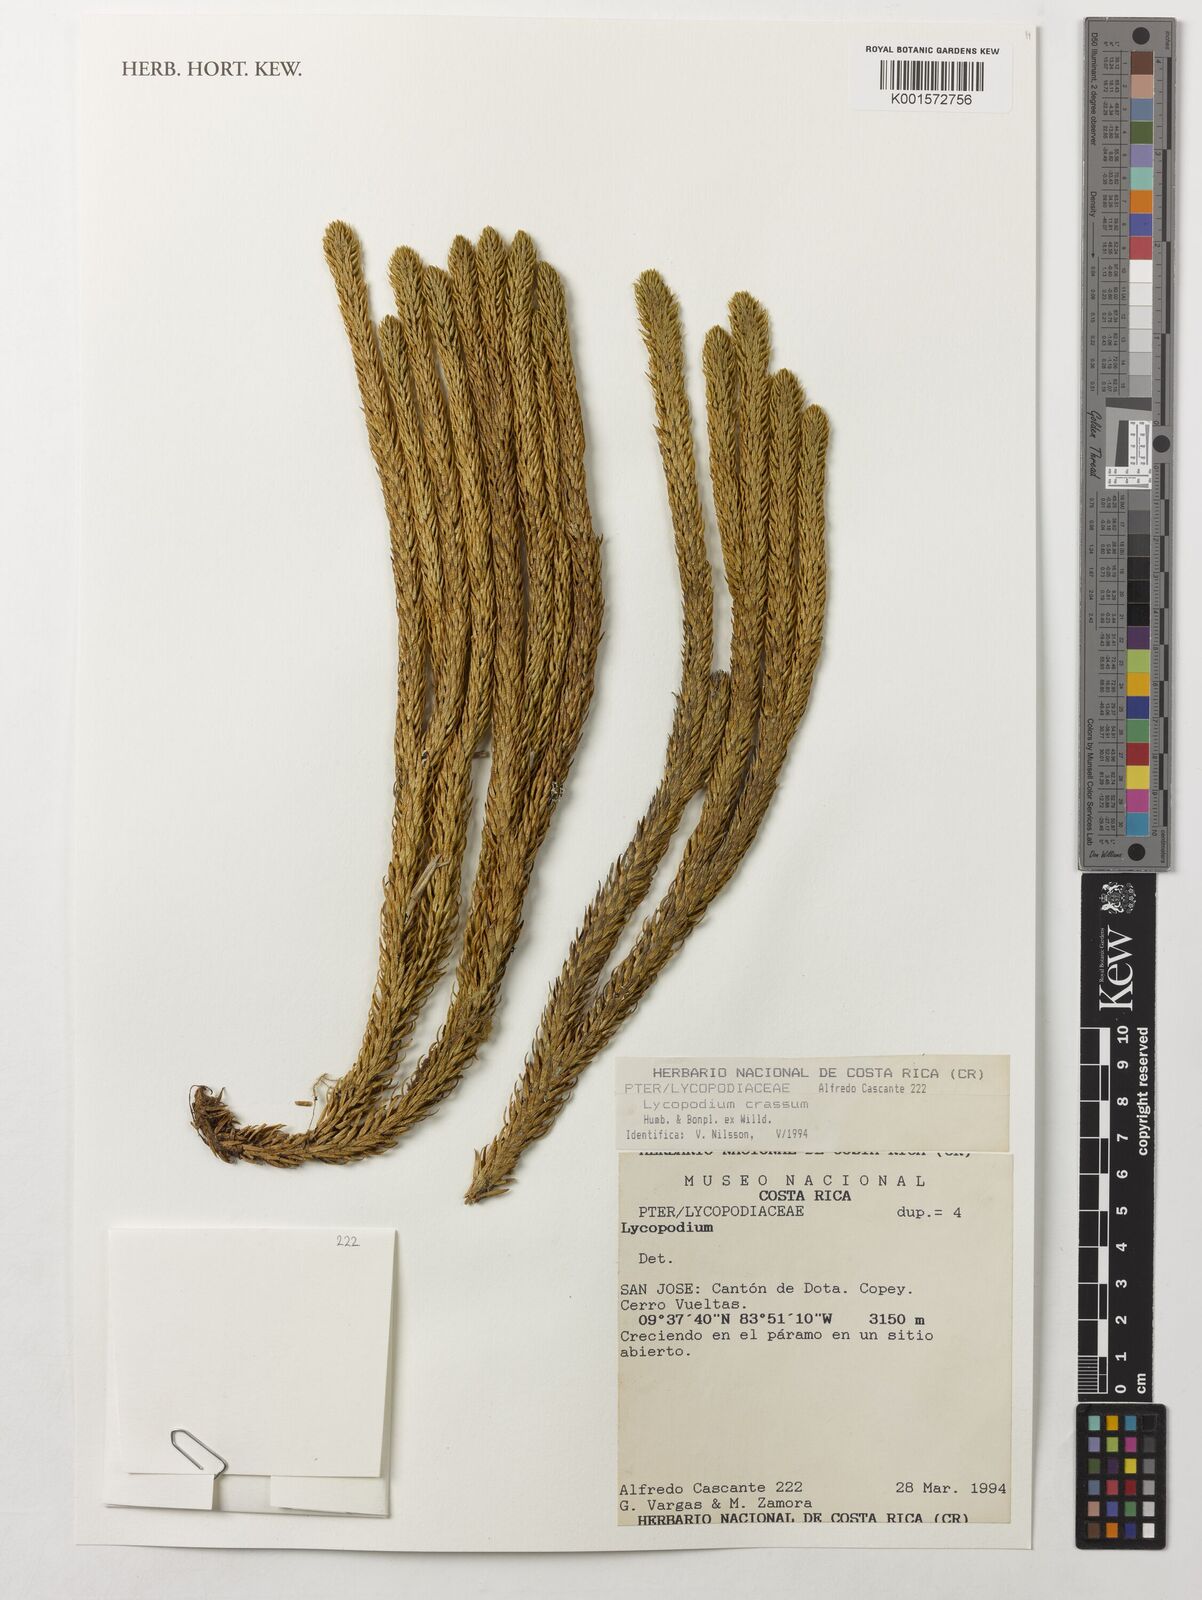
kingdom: Plantae
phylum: Tracheophyta
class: Lycopodiopsida
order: Lycopodiales
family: Lycopodiaceae
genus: Phlegmariurus
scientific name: Phlegmariurus crassus
